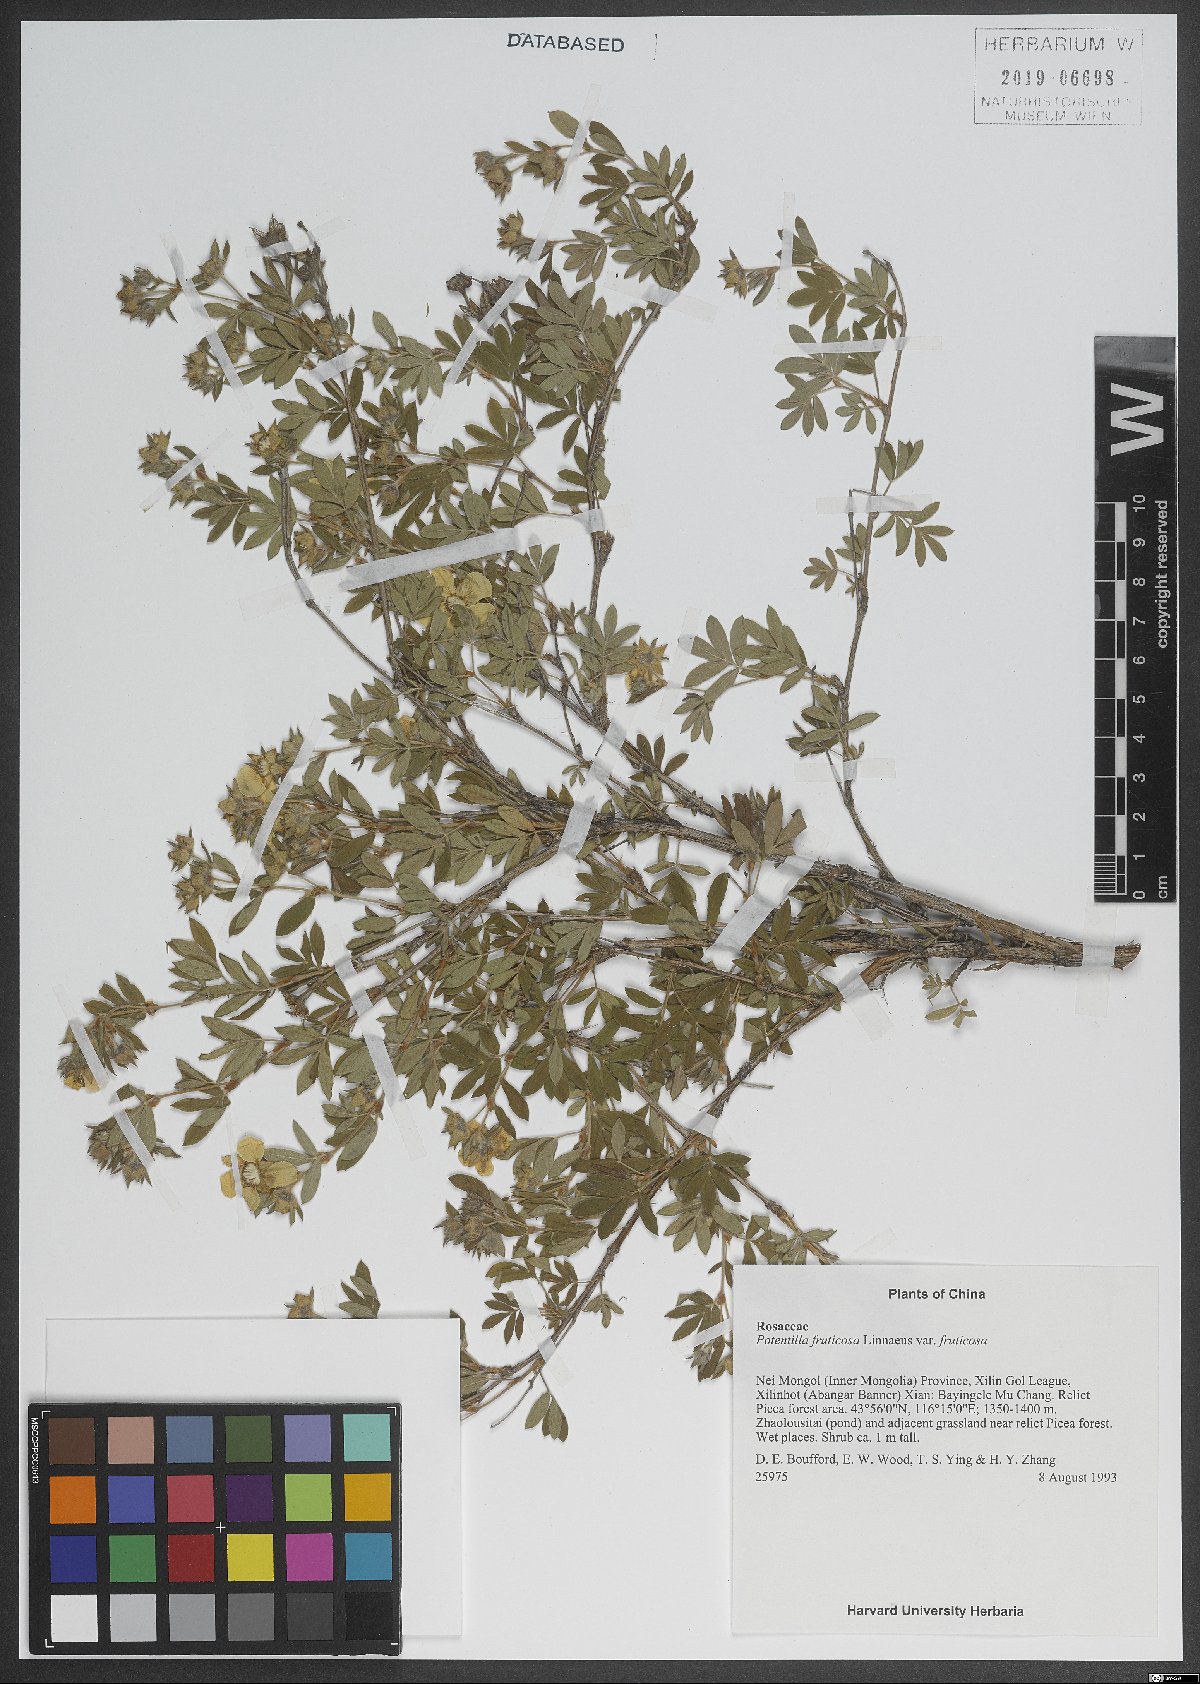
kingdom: Plantae
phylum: Tracheophyta
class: Magnoliopsida
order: Rosales
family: Rosaceae
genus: Dasiphora
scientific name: Dasiphora fruticosa
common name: Shrubby cinquefoil
